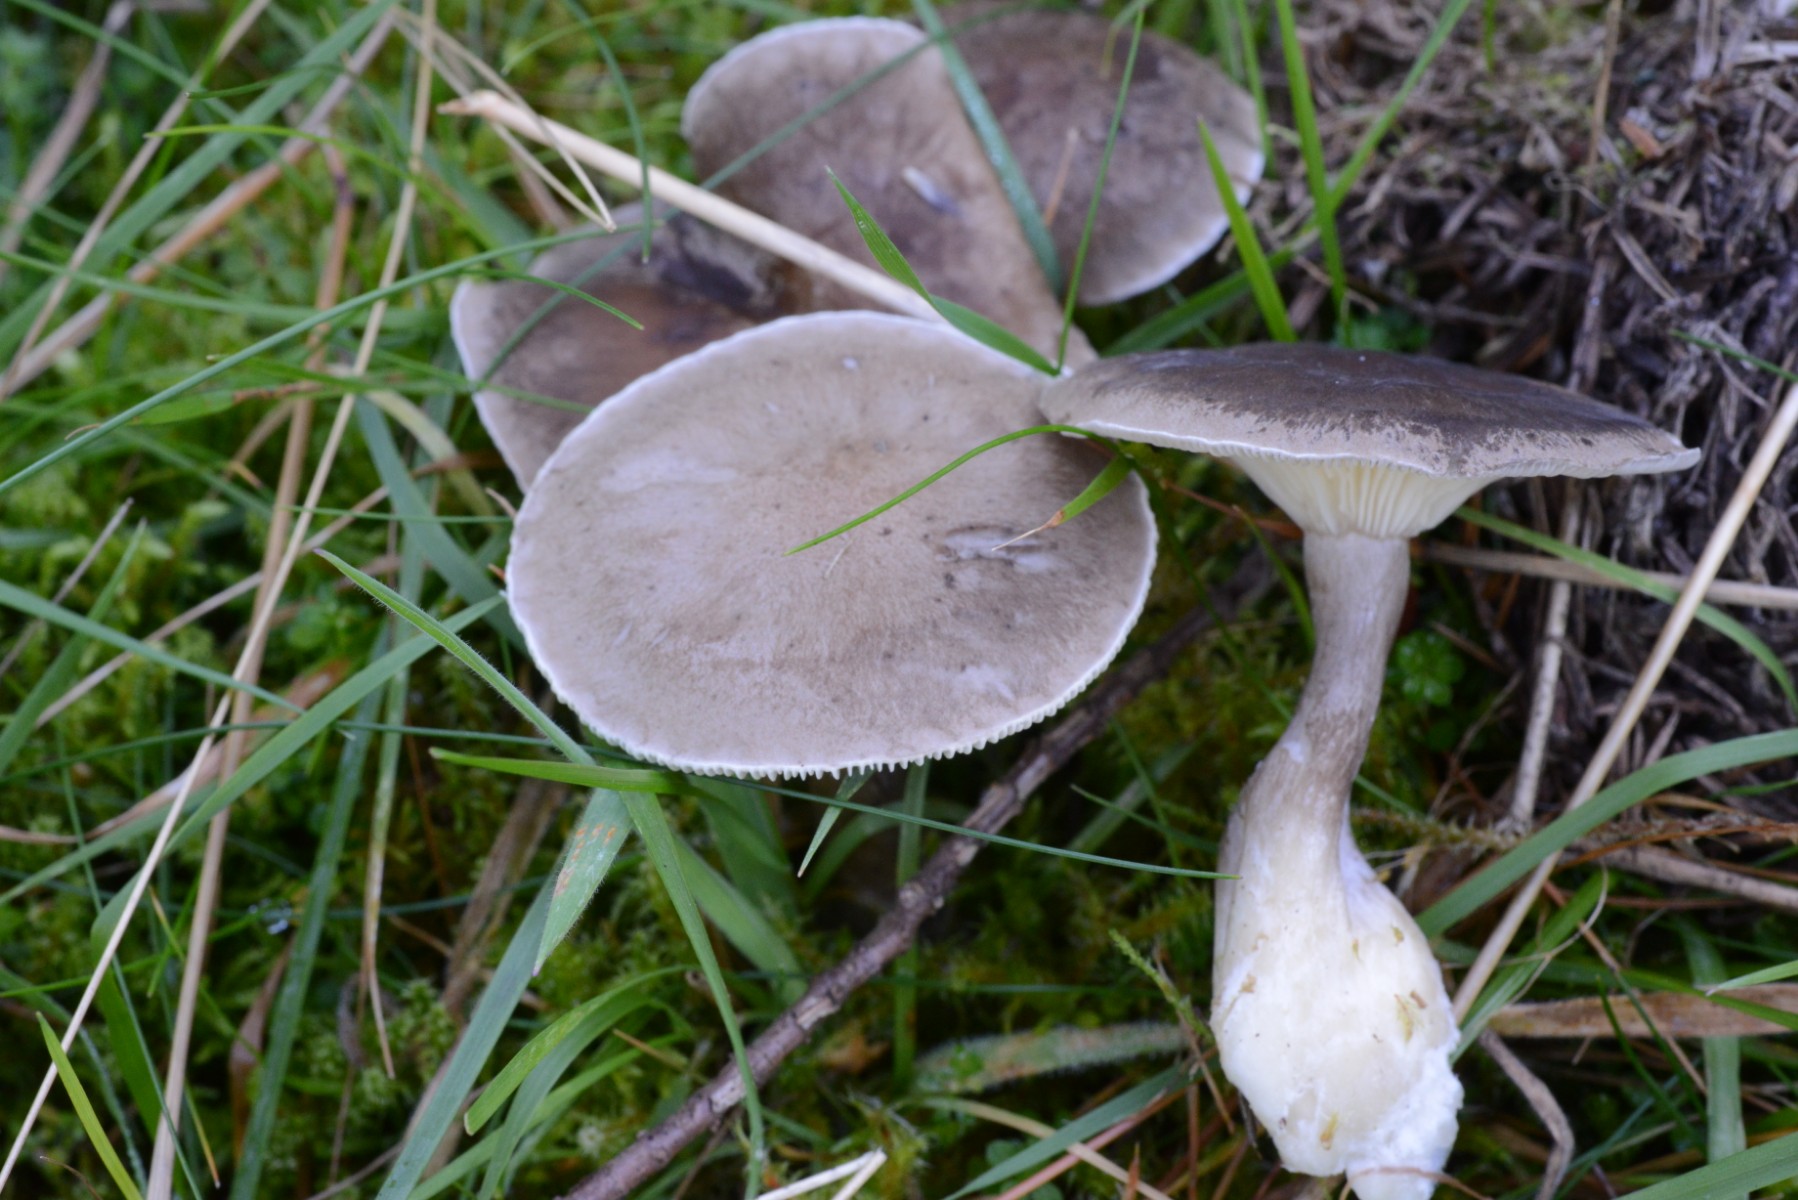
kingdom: Fungi
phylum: Basidiomycota
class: Agaricomycetes
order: Agaricales
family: Hygrophoraceae
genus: Ampulloclitocybe
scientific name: Ampulloclitocybe clavipes
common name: køllefod
